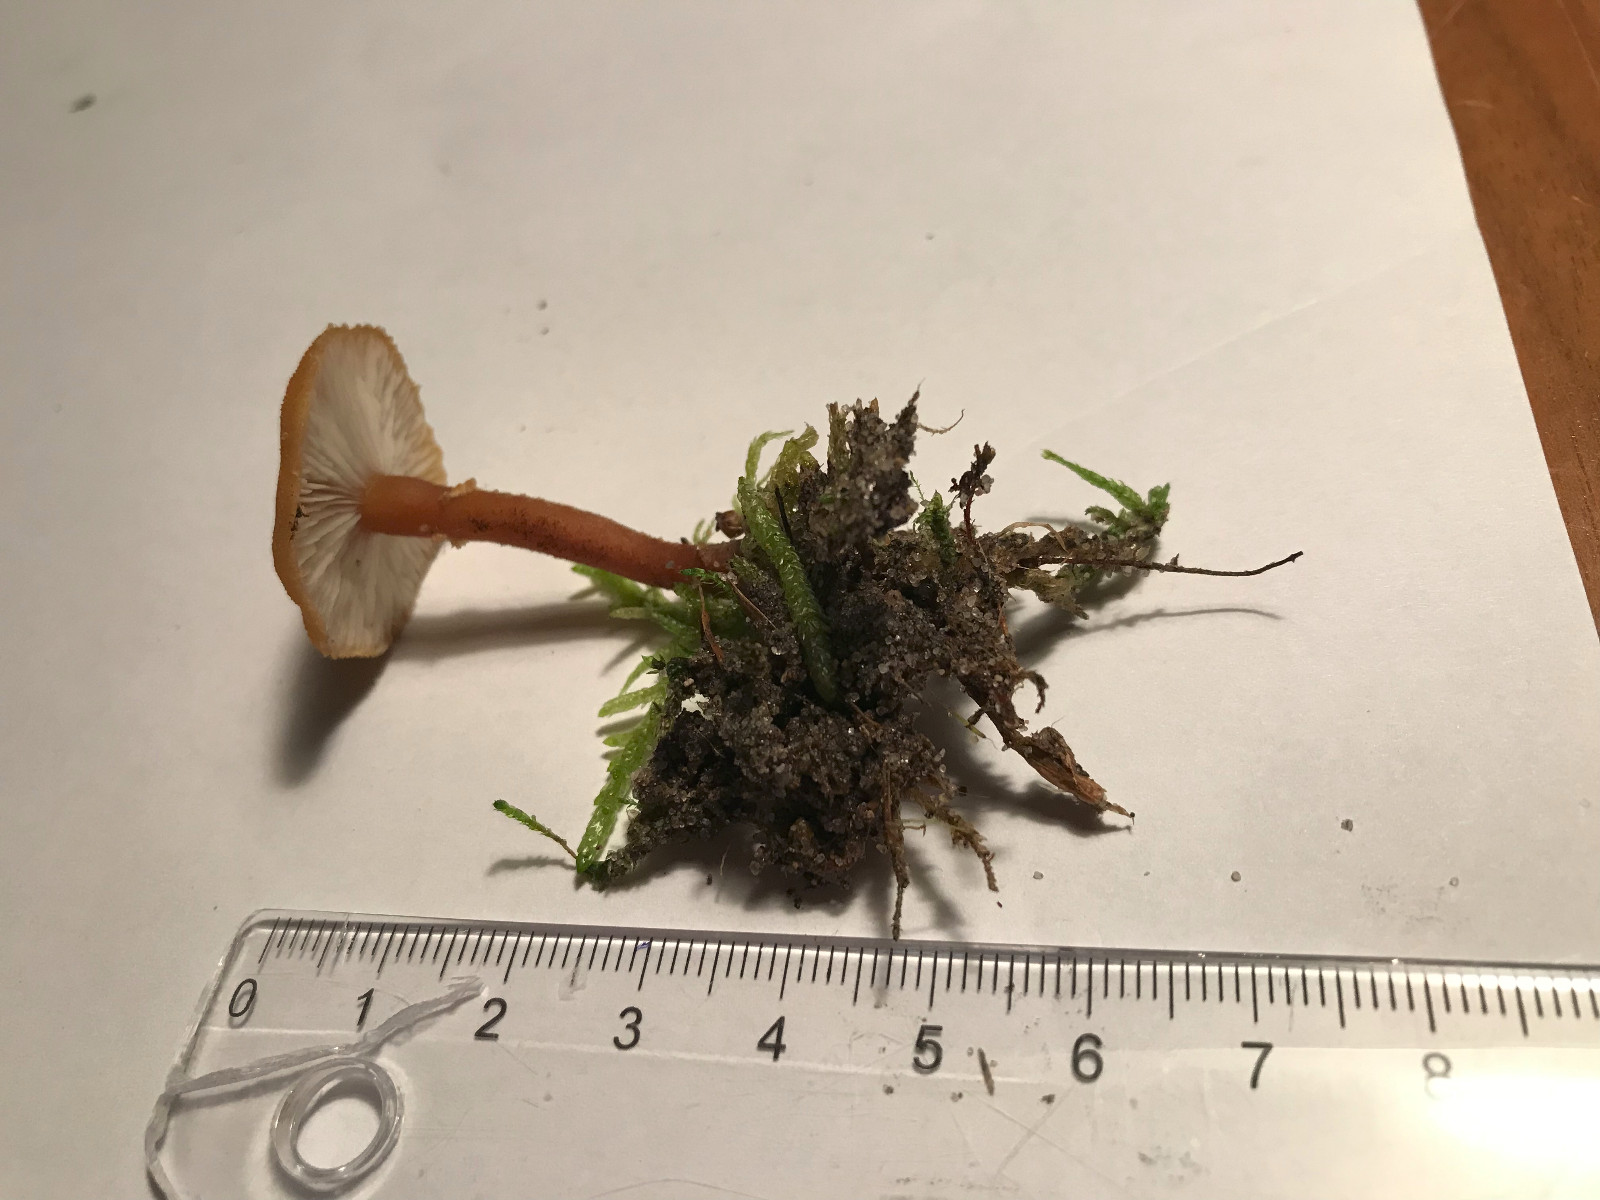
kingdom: Fungi
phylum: Basidiomycota
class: Agaricomycetes
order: Agaricales
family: Tricholomataceae
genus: Cystoderma
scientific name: Cystoderma
